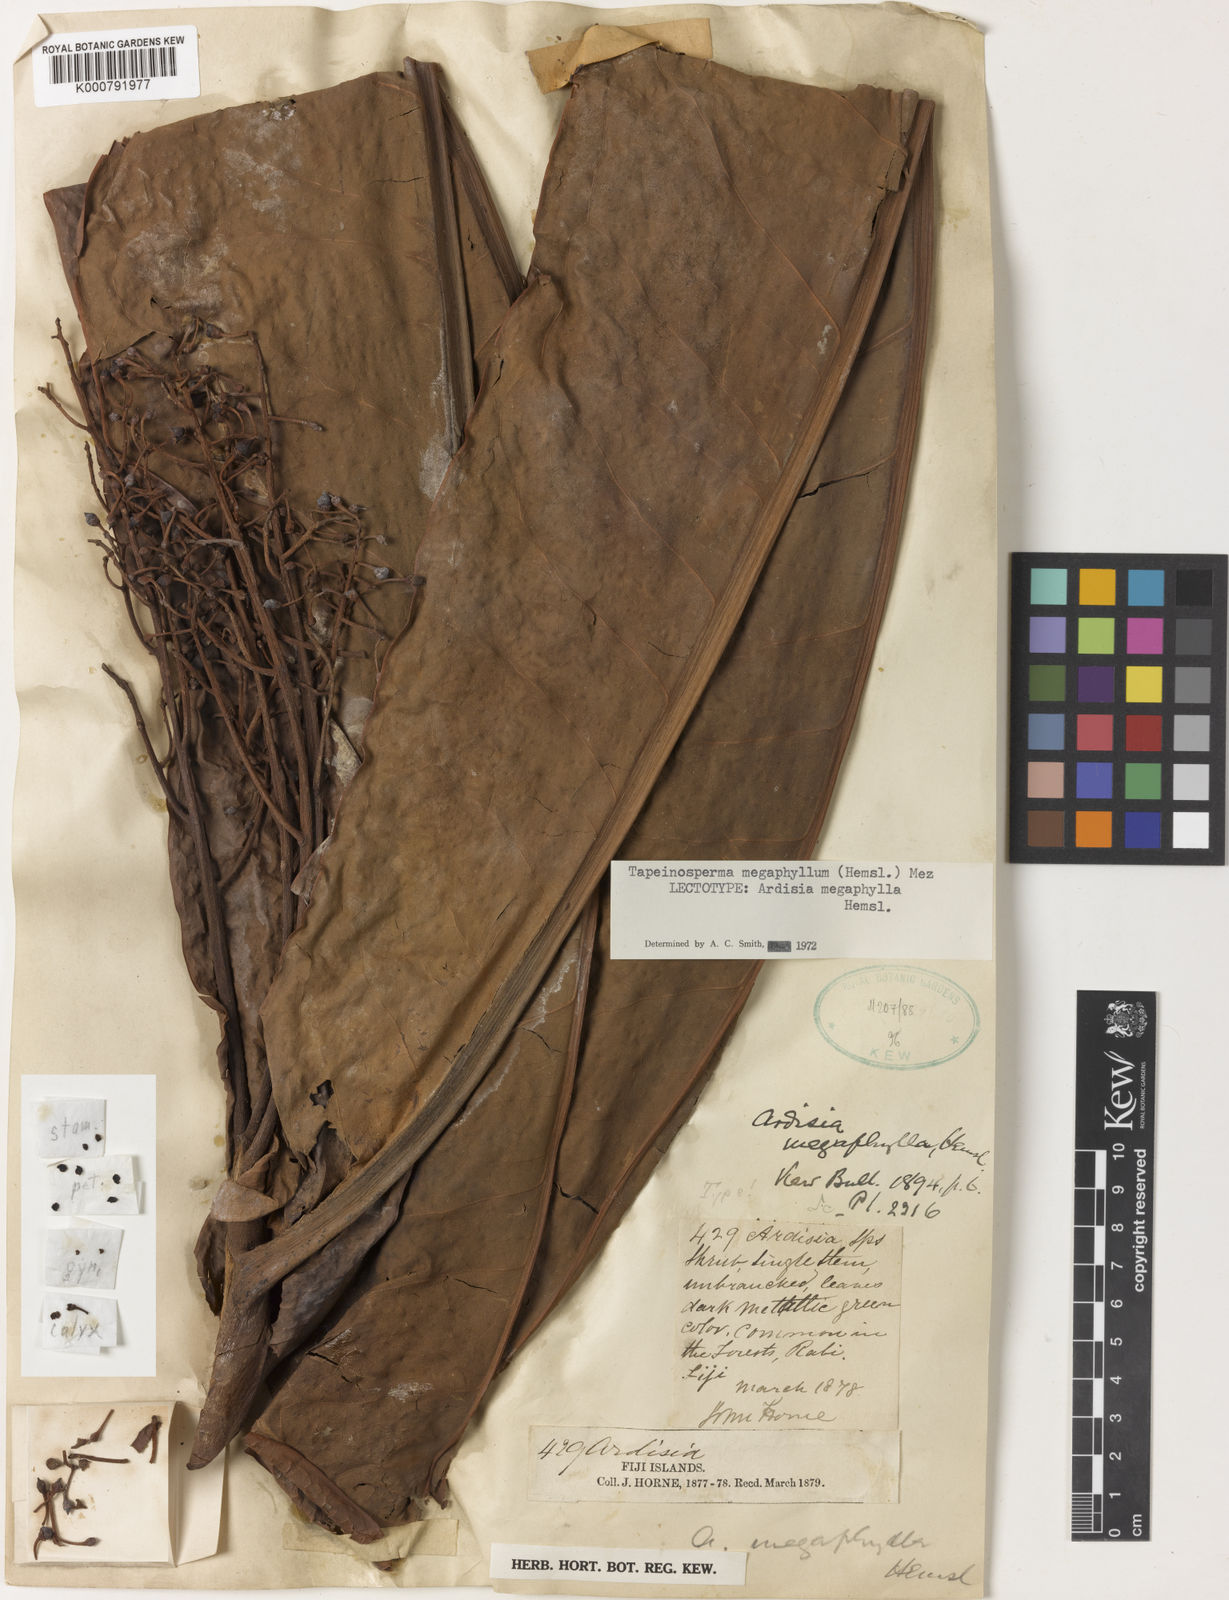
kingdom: Plantae
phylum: Tracheophyta
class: Magnoliopsida
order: Ericales
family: Primulaceae
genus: Tapeinosperma
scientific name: Tapeinosperma megaphyllum
